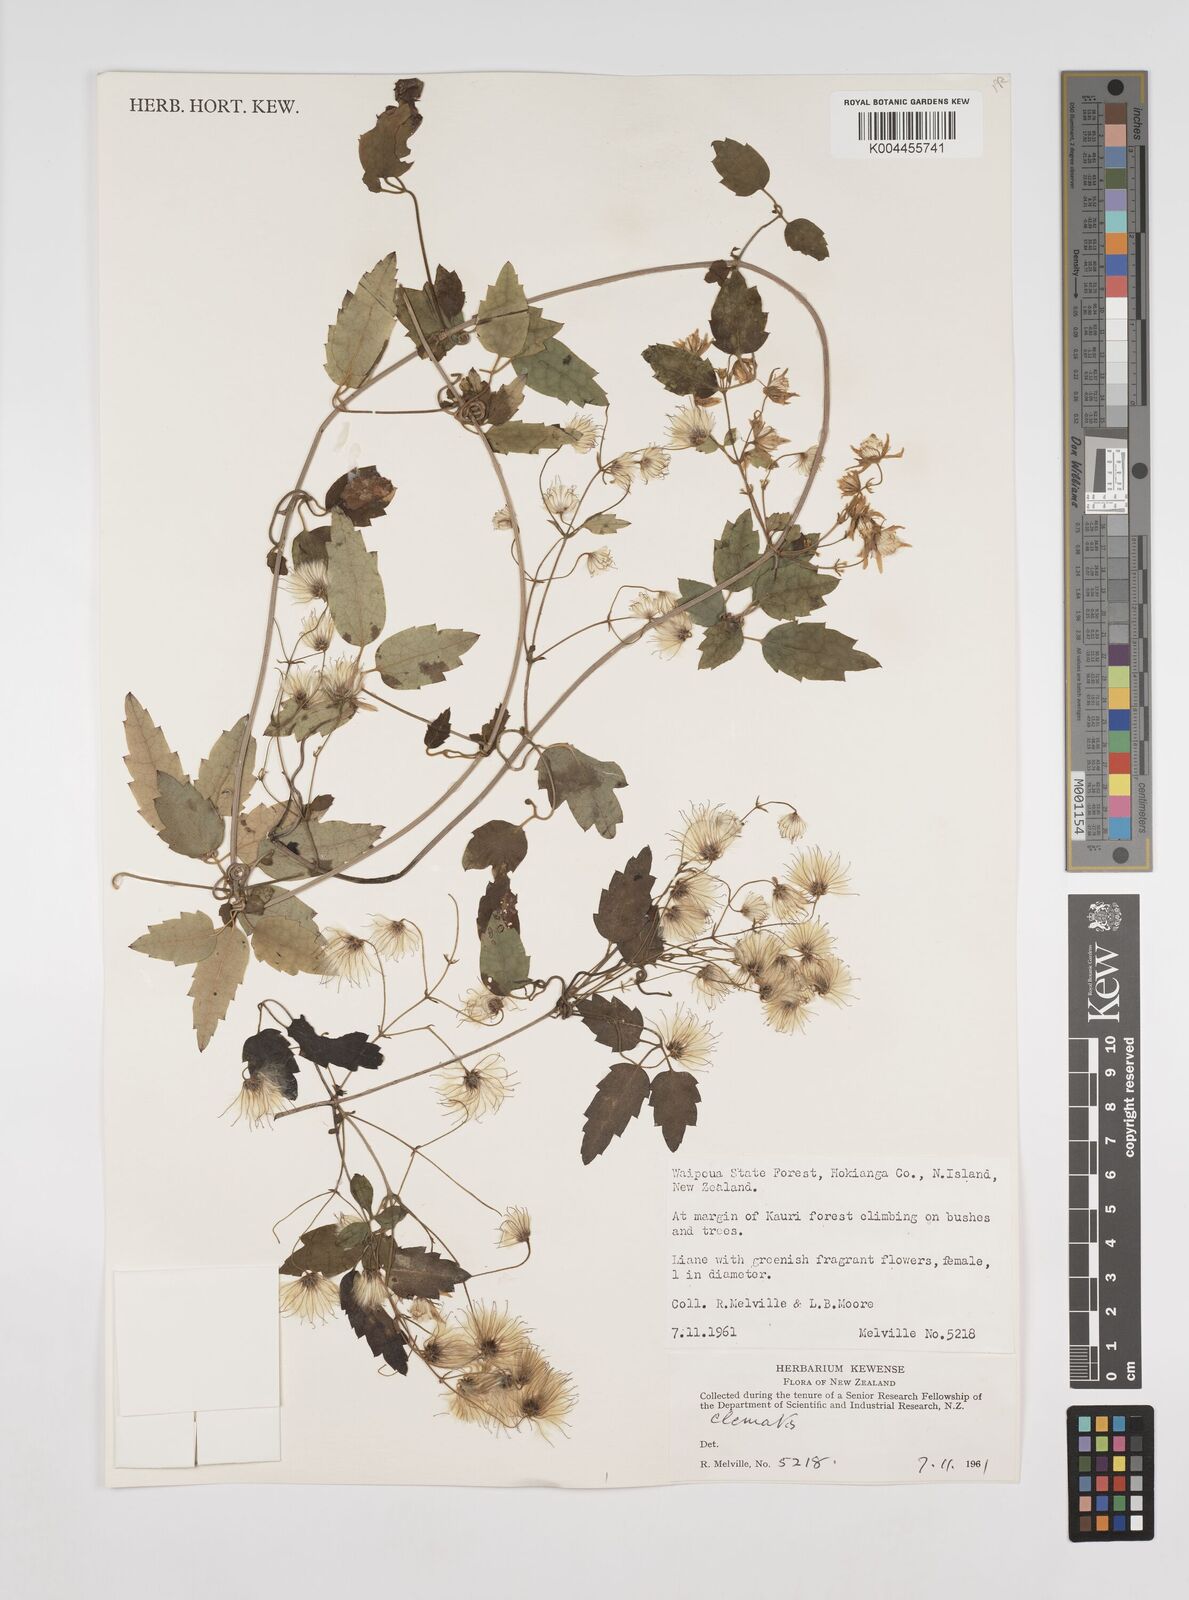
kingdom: Plantae
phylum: Tracheophyta
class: Magnoliopsida
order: Ranunculales
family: Ranunculaceae
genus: Clematis
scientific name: Clematis
